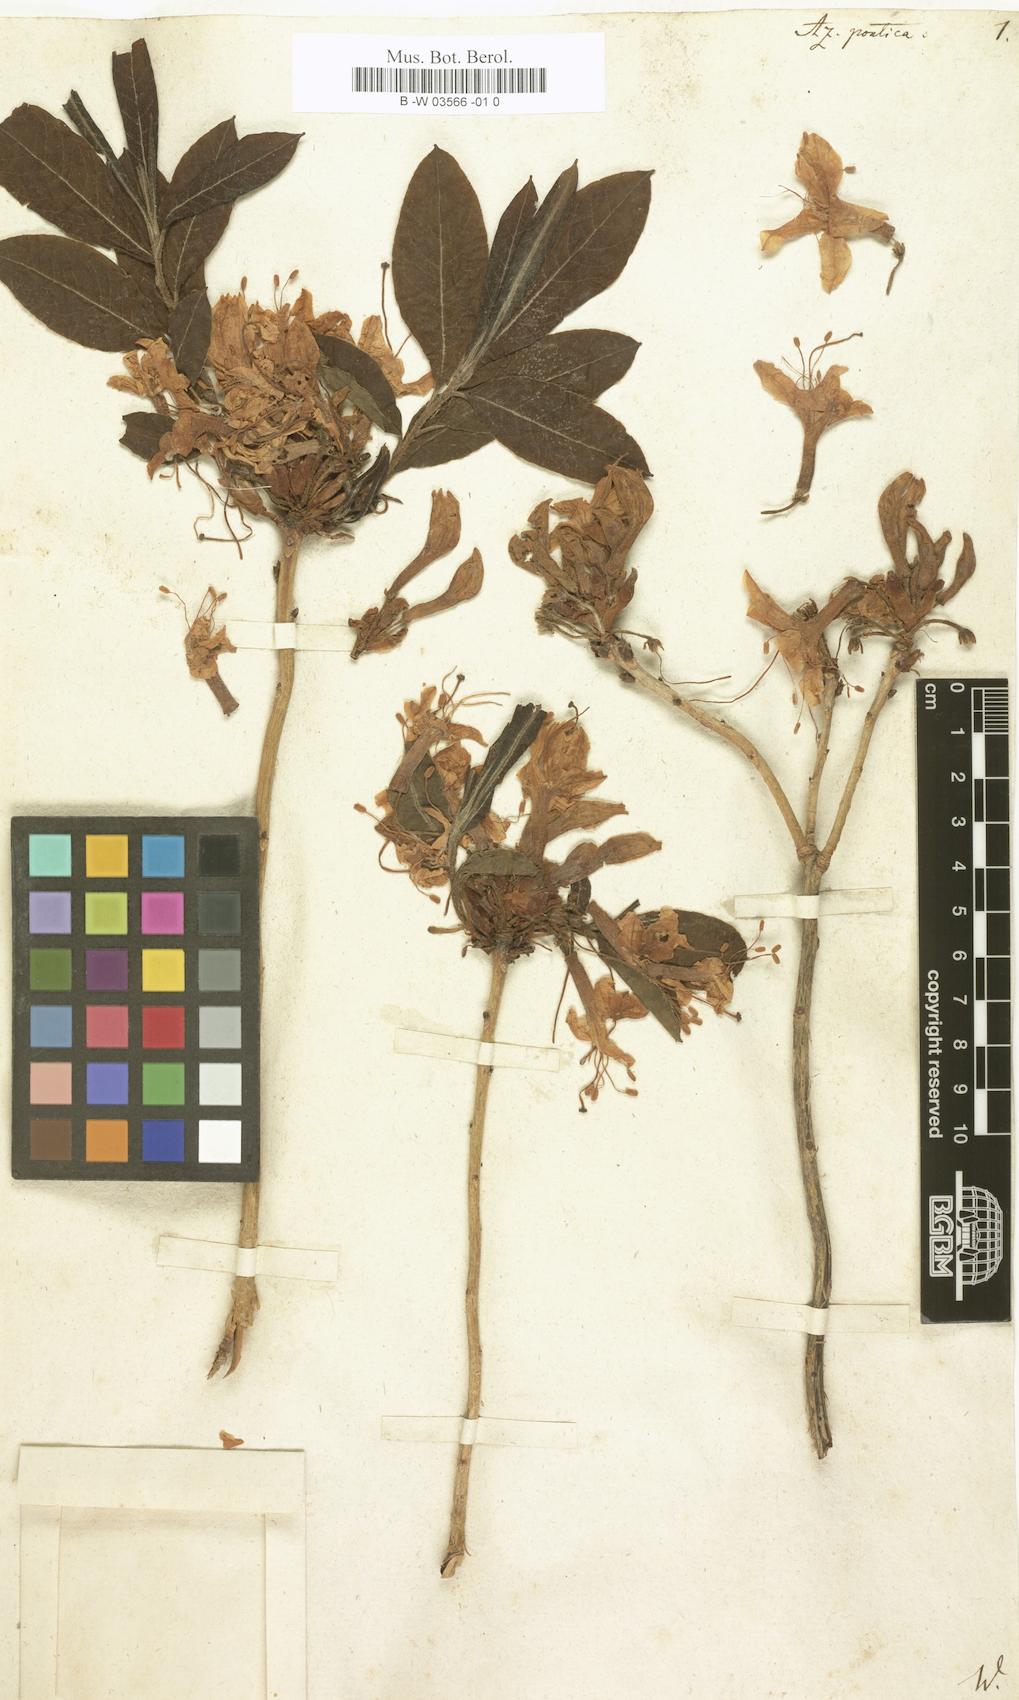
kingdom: Plantae
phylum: Tracheophyta
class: Magnoliopsida
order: Ericales
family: Ericaceae
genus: Rhododendron
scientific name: Rhododendron ponticum
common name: Rhododendron
